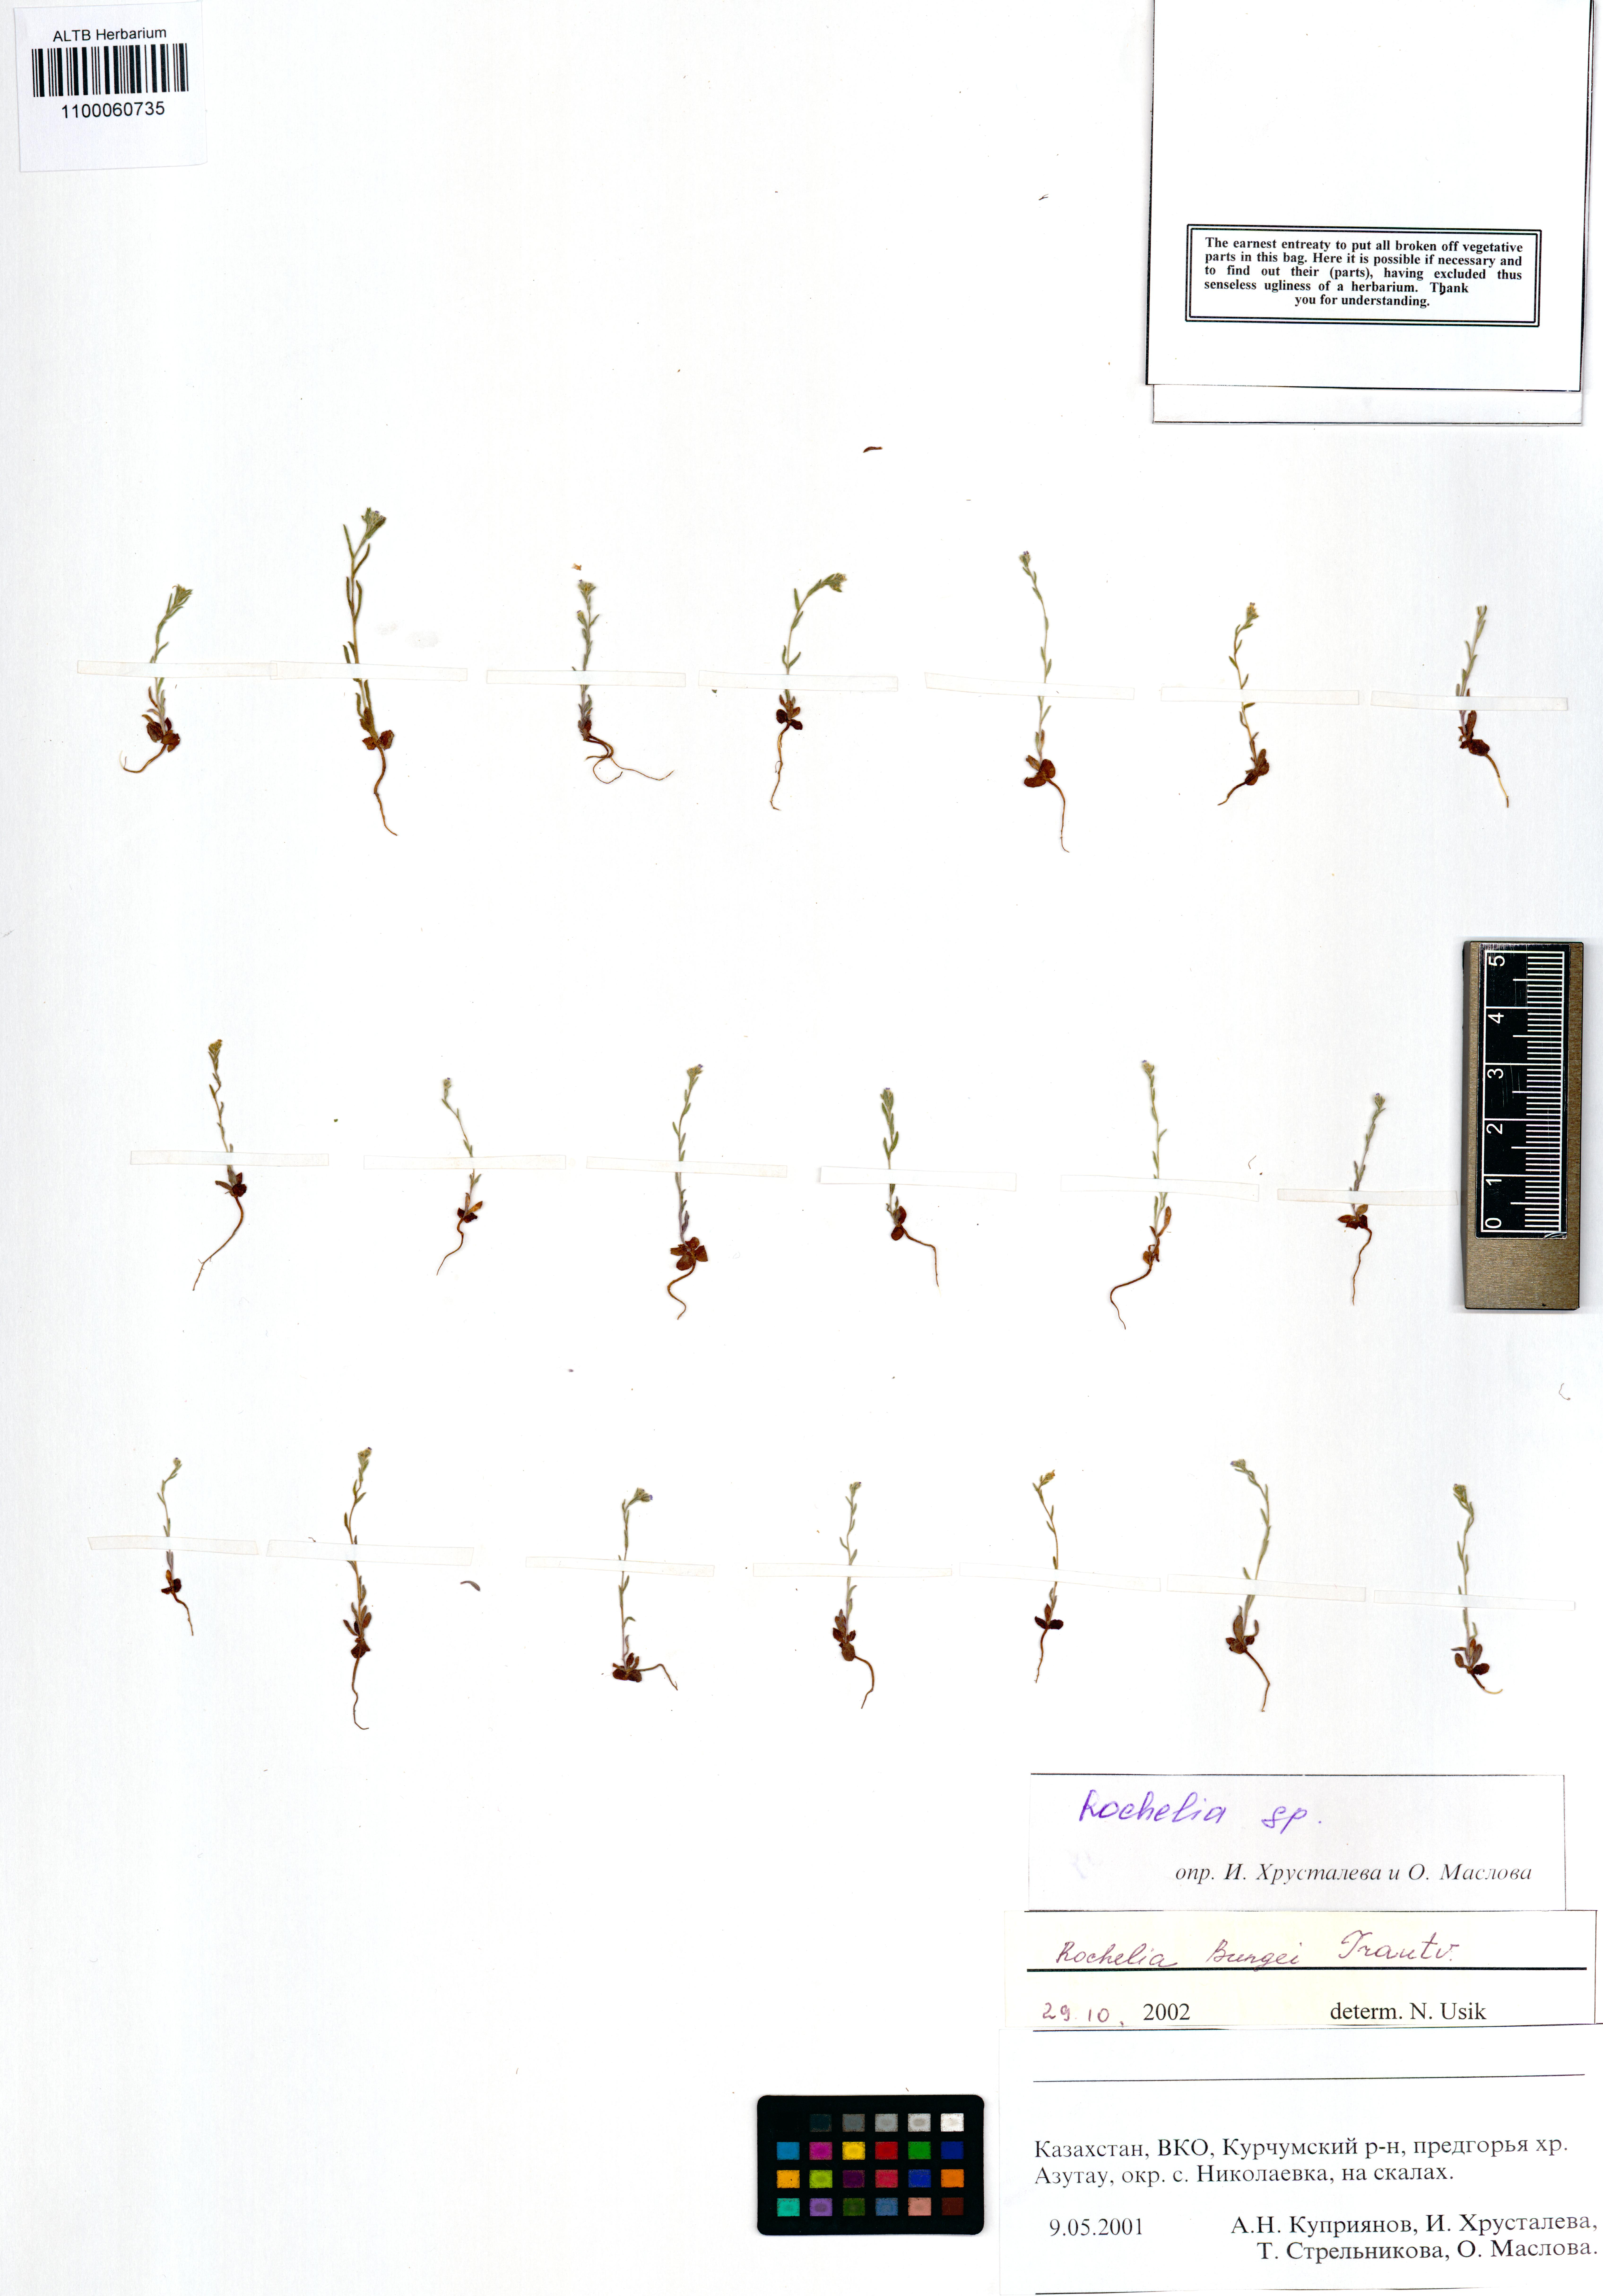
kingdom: Plantae
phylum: Tracheophyta
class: Magnoliopsida
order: Boraginales
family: Boraginaceae
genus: Rochelia
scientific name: Rochelia bungei
